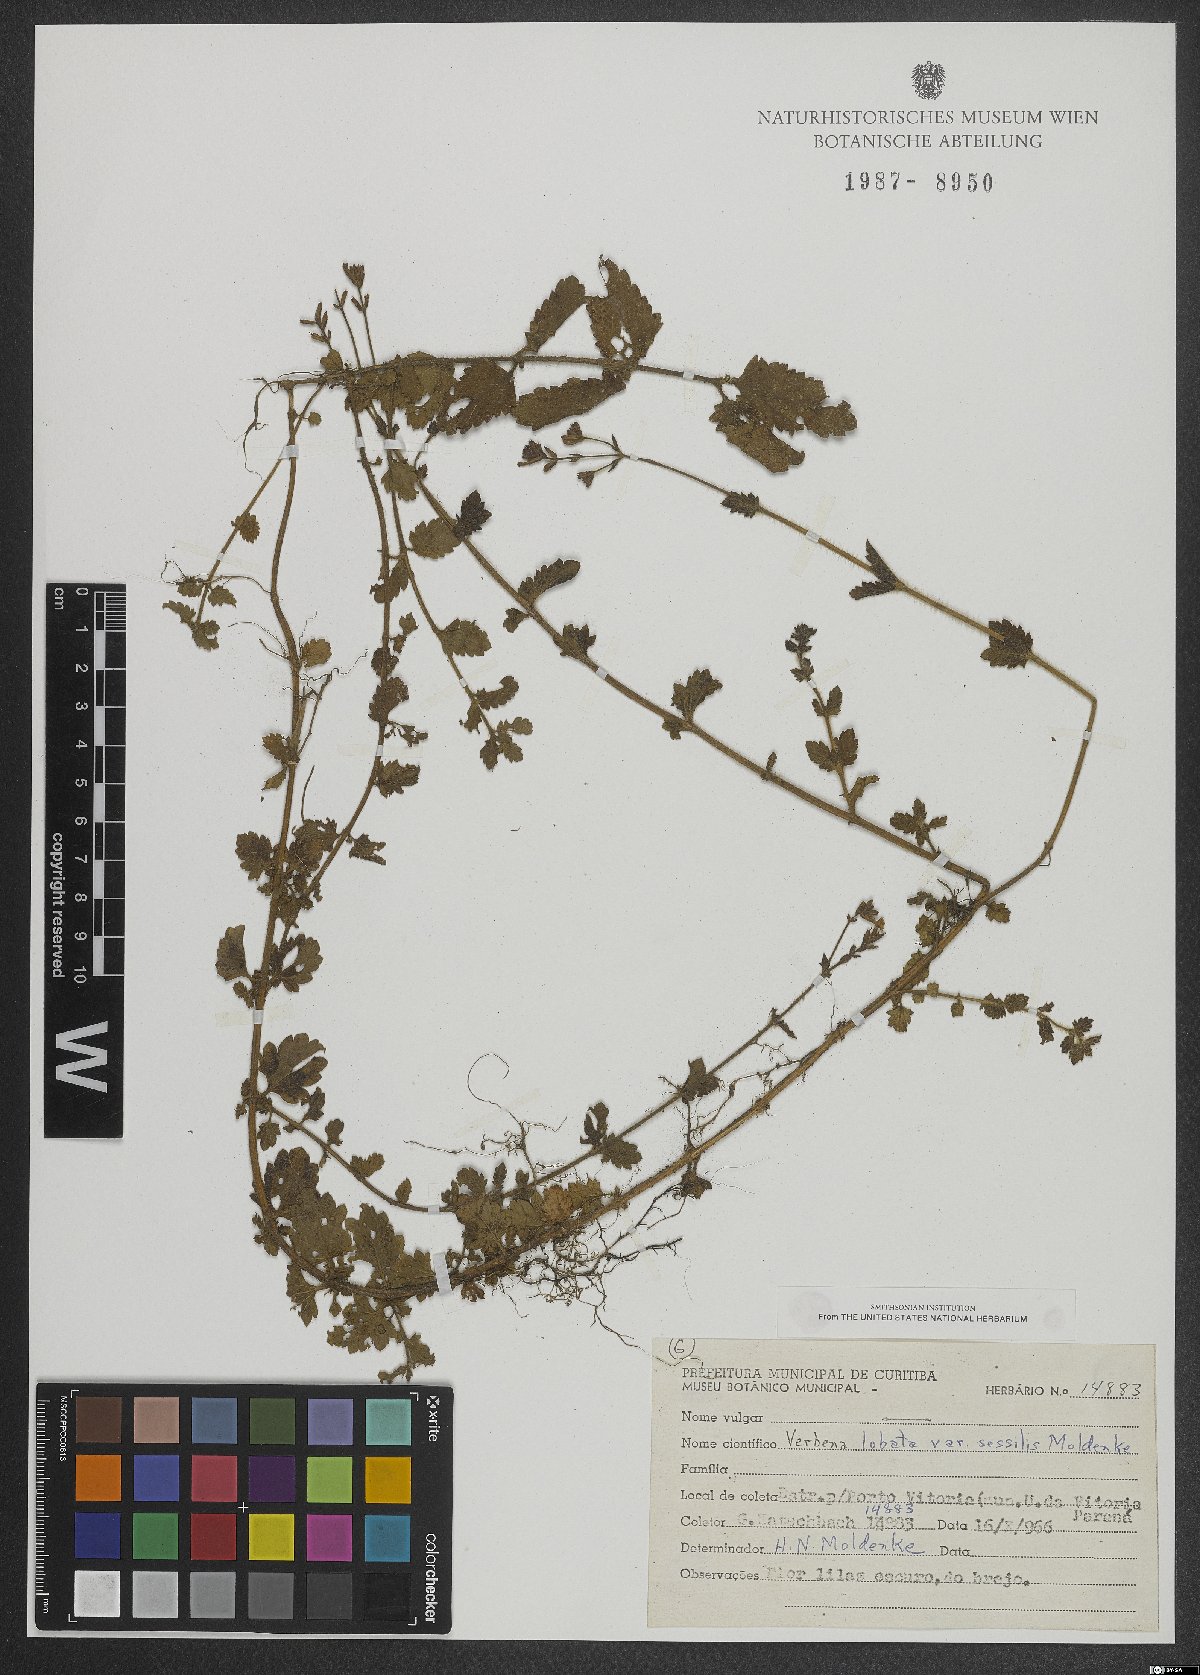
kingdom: Plantae
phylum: Tracheophyta
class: Magnoliopsida
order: Lamiales
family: Verbenaceae
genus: Verbena
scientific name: Verbena lobata
